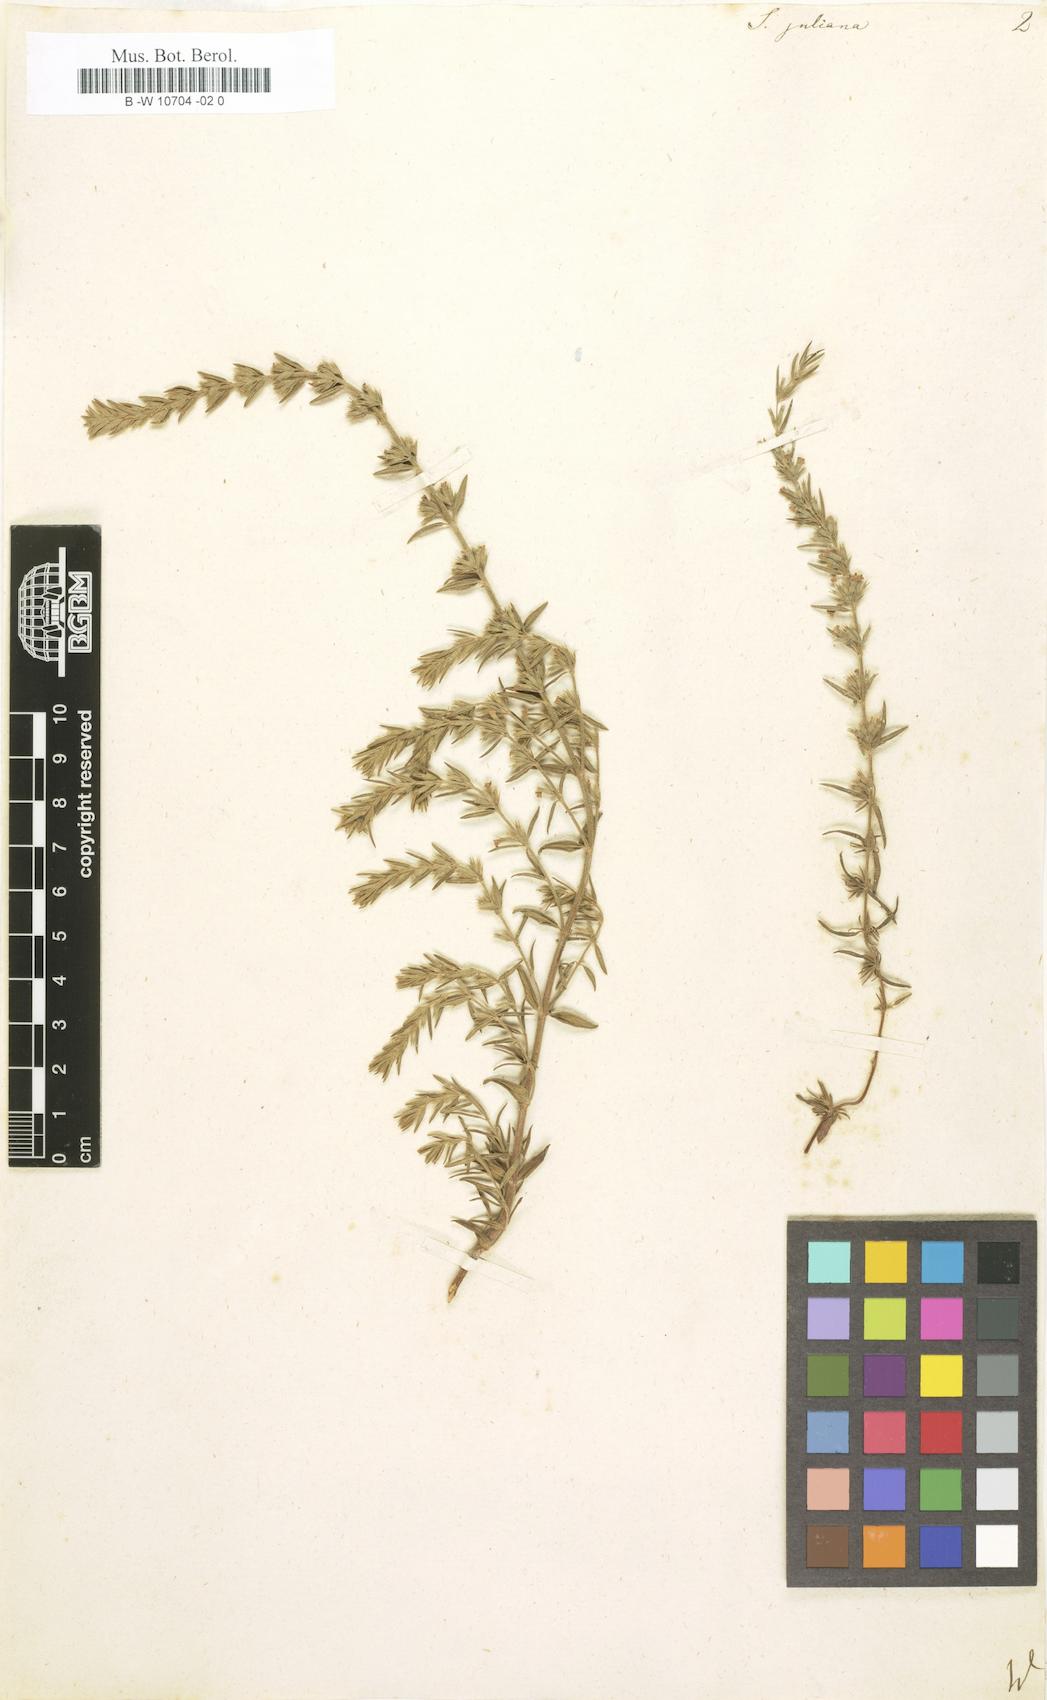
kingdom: Plantae
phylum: Tracheophyta
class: Magnoliopsida
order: Lamiales
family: Lamiaceae
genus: Micromeria
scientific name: Micromeria juliana
